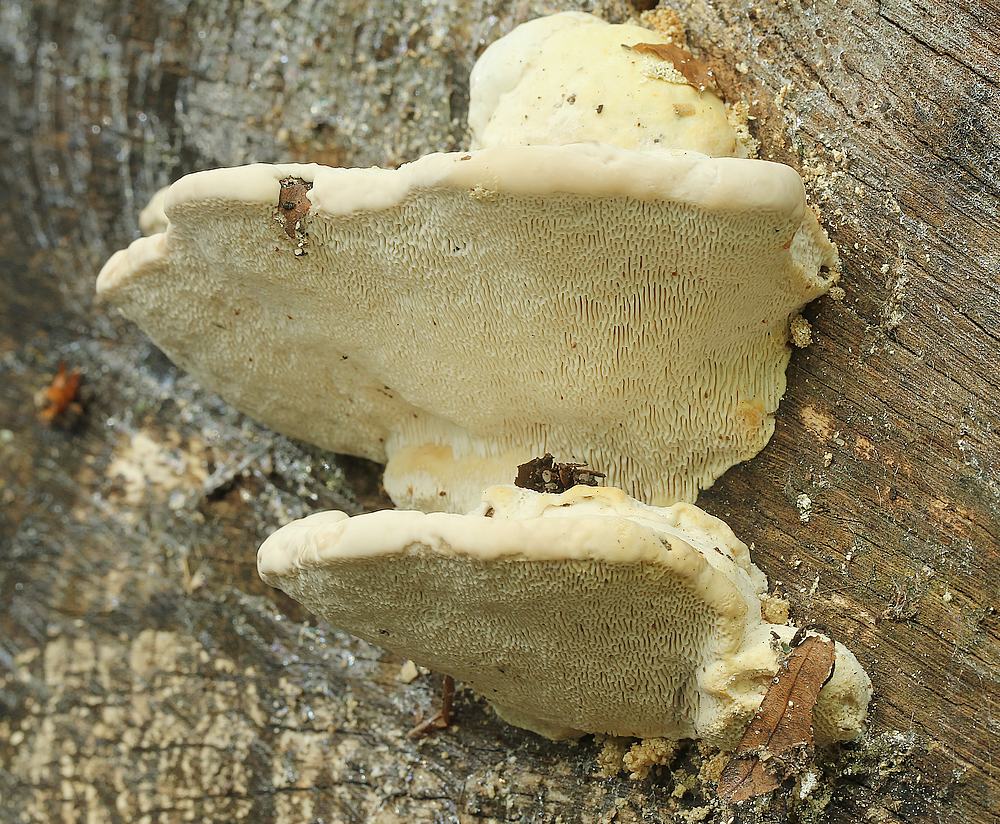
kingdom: Fungi
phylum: Basidiomycota
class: Agaricomycetes
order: Polyporales
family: Polyporaceae
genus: Trametes
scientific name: Trametes gibbosa
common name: puklet læderporesvamp
